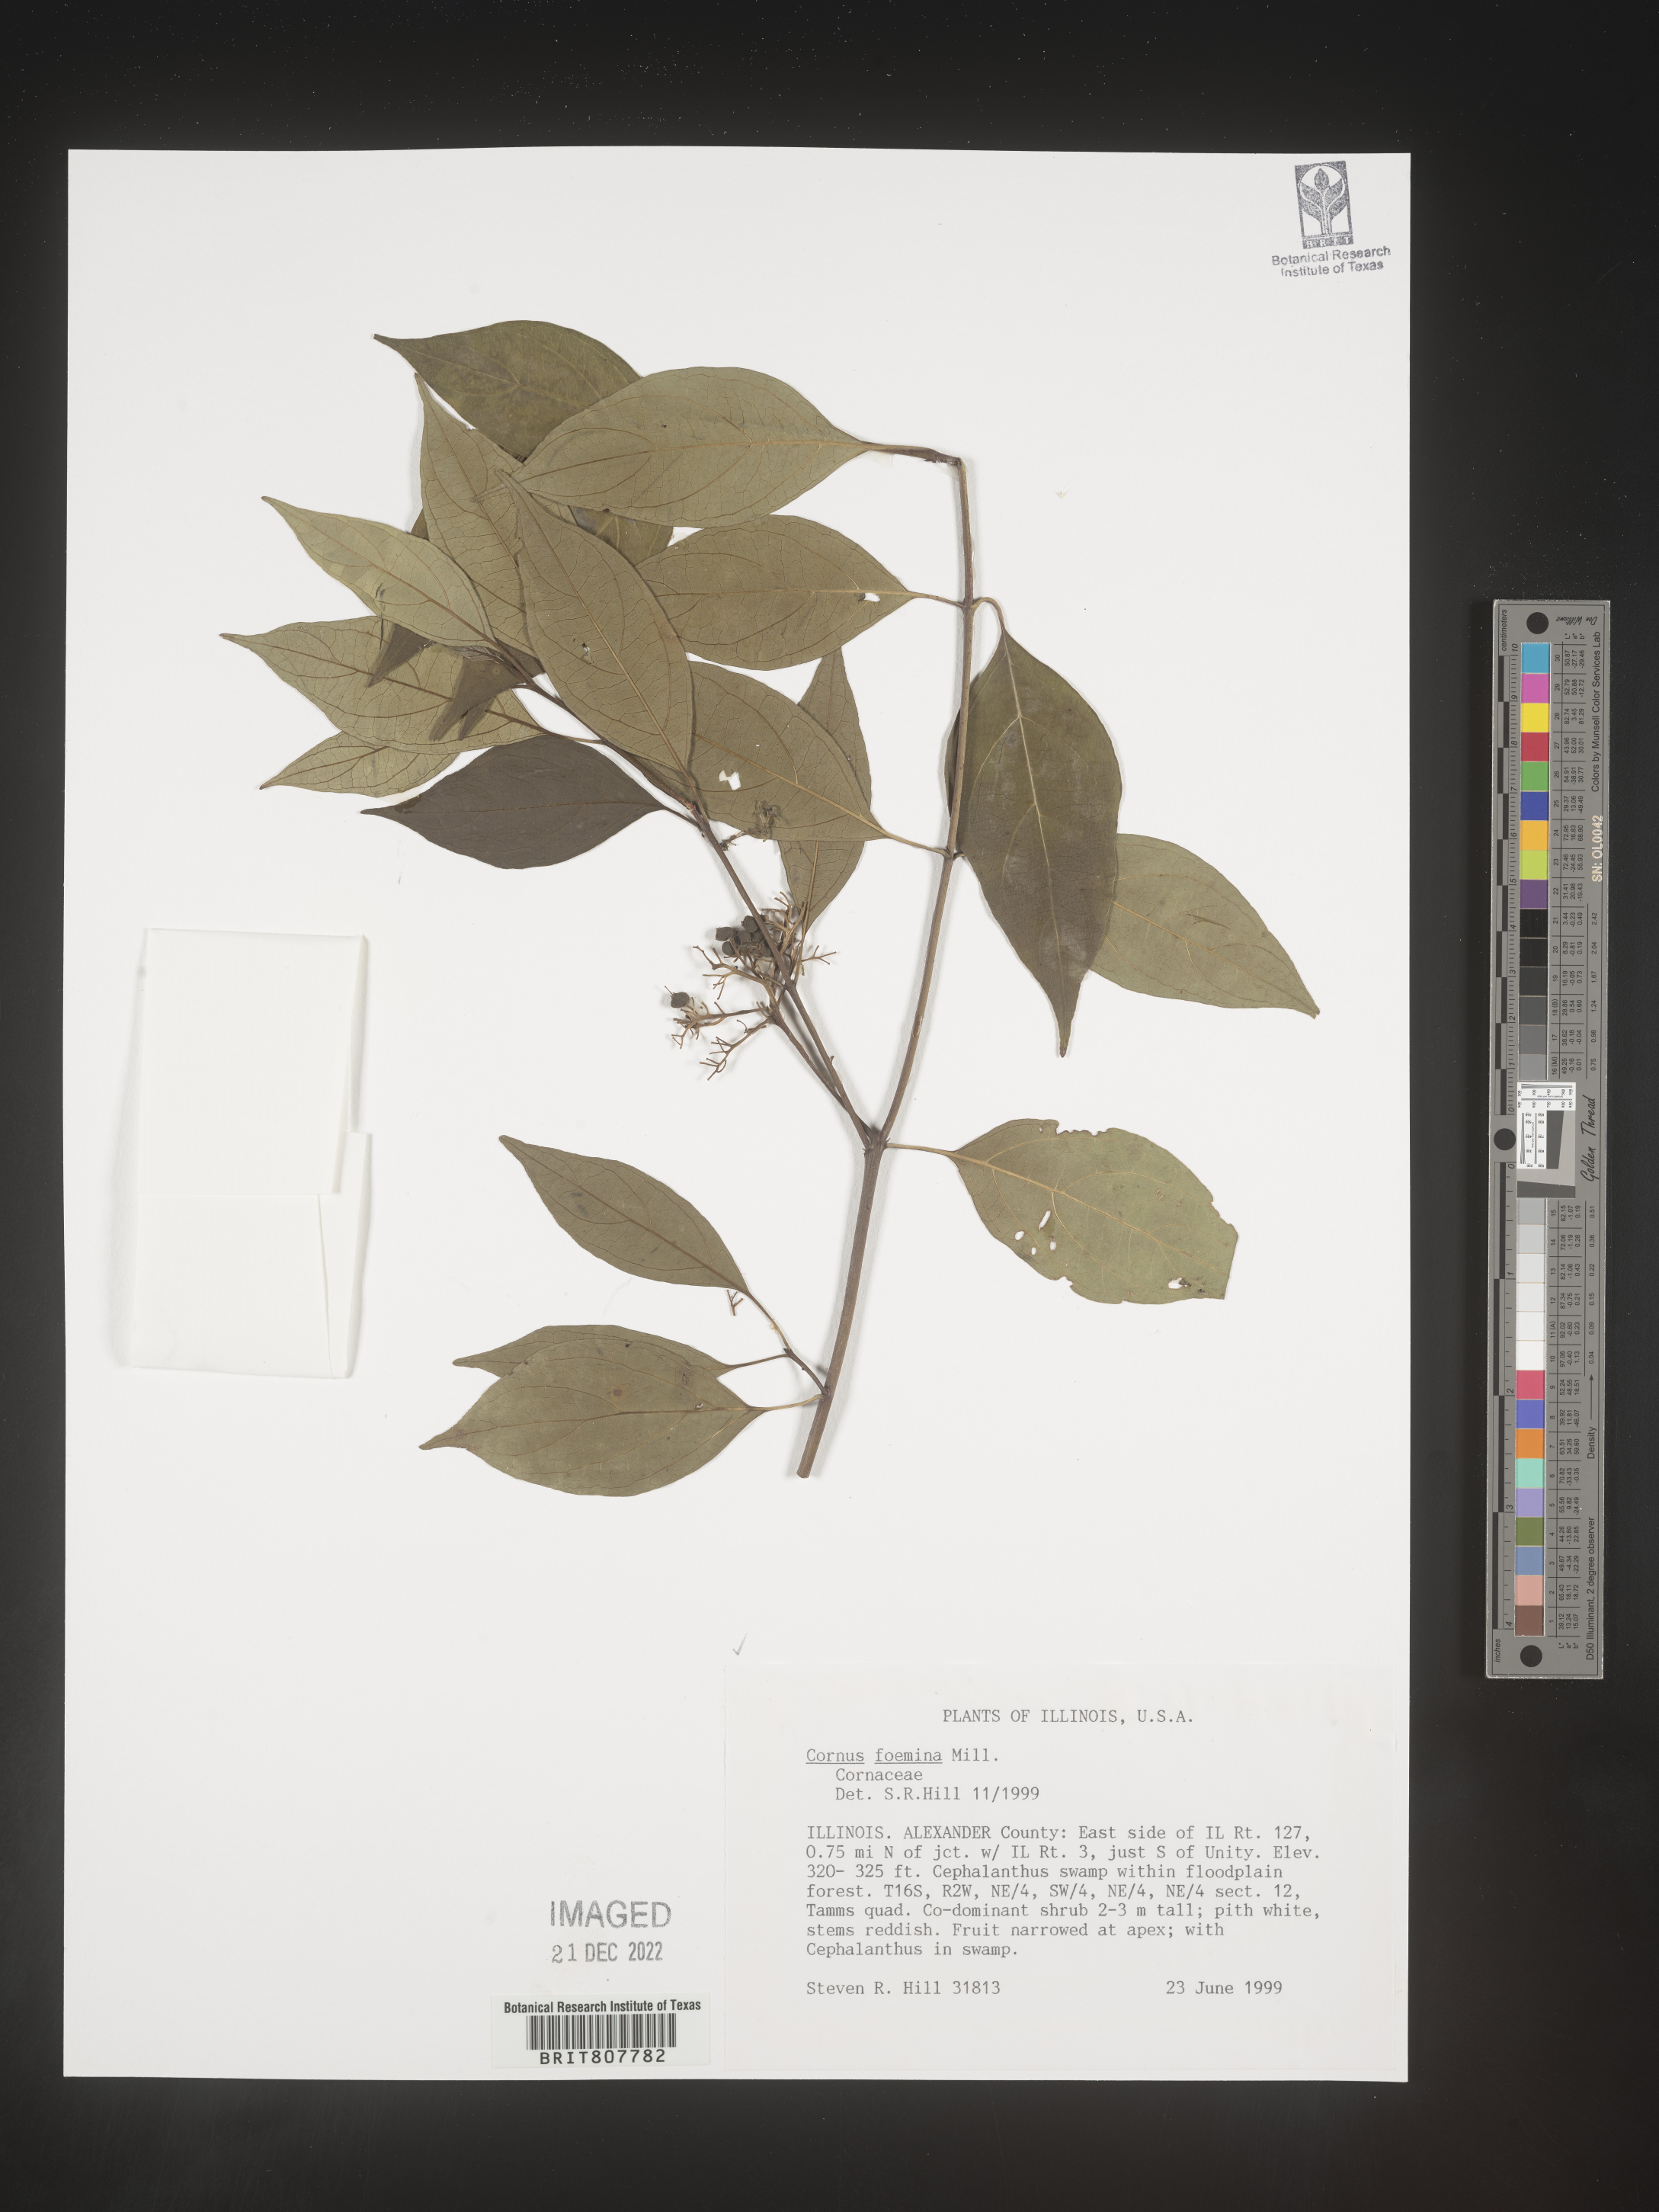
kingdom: Plantae
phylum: Tracheophyta
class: Magnoliopsida
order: Cornales
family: Cornaceae
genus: Cornus
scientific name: Cornus foemina
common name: Swamp dogwood
